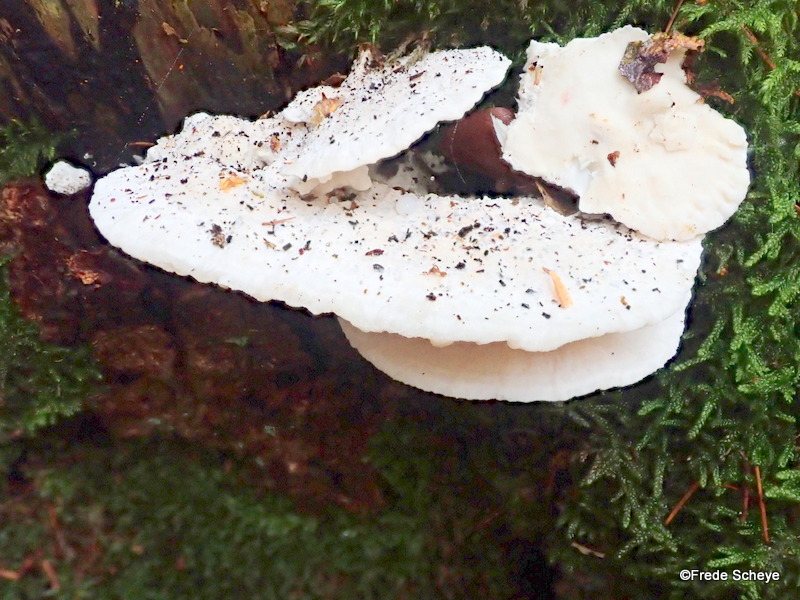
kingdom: Fungi
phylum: Basidiomycota
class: Agaricomycetes
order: Polyporales
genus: Amaropostia
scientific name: Amaropostia stiptica
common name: bitter kødporesvamp
